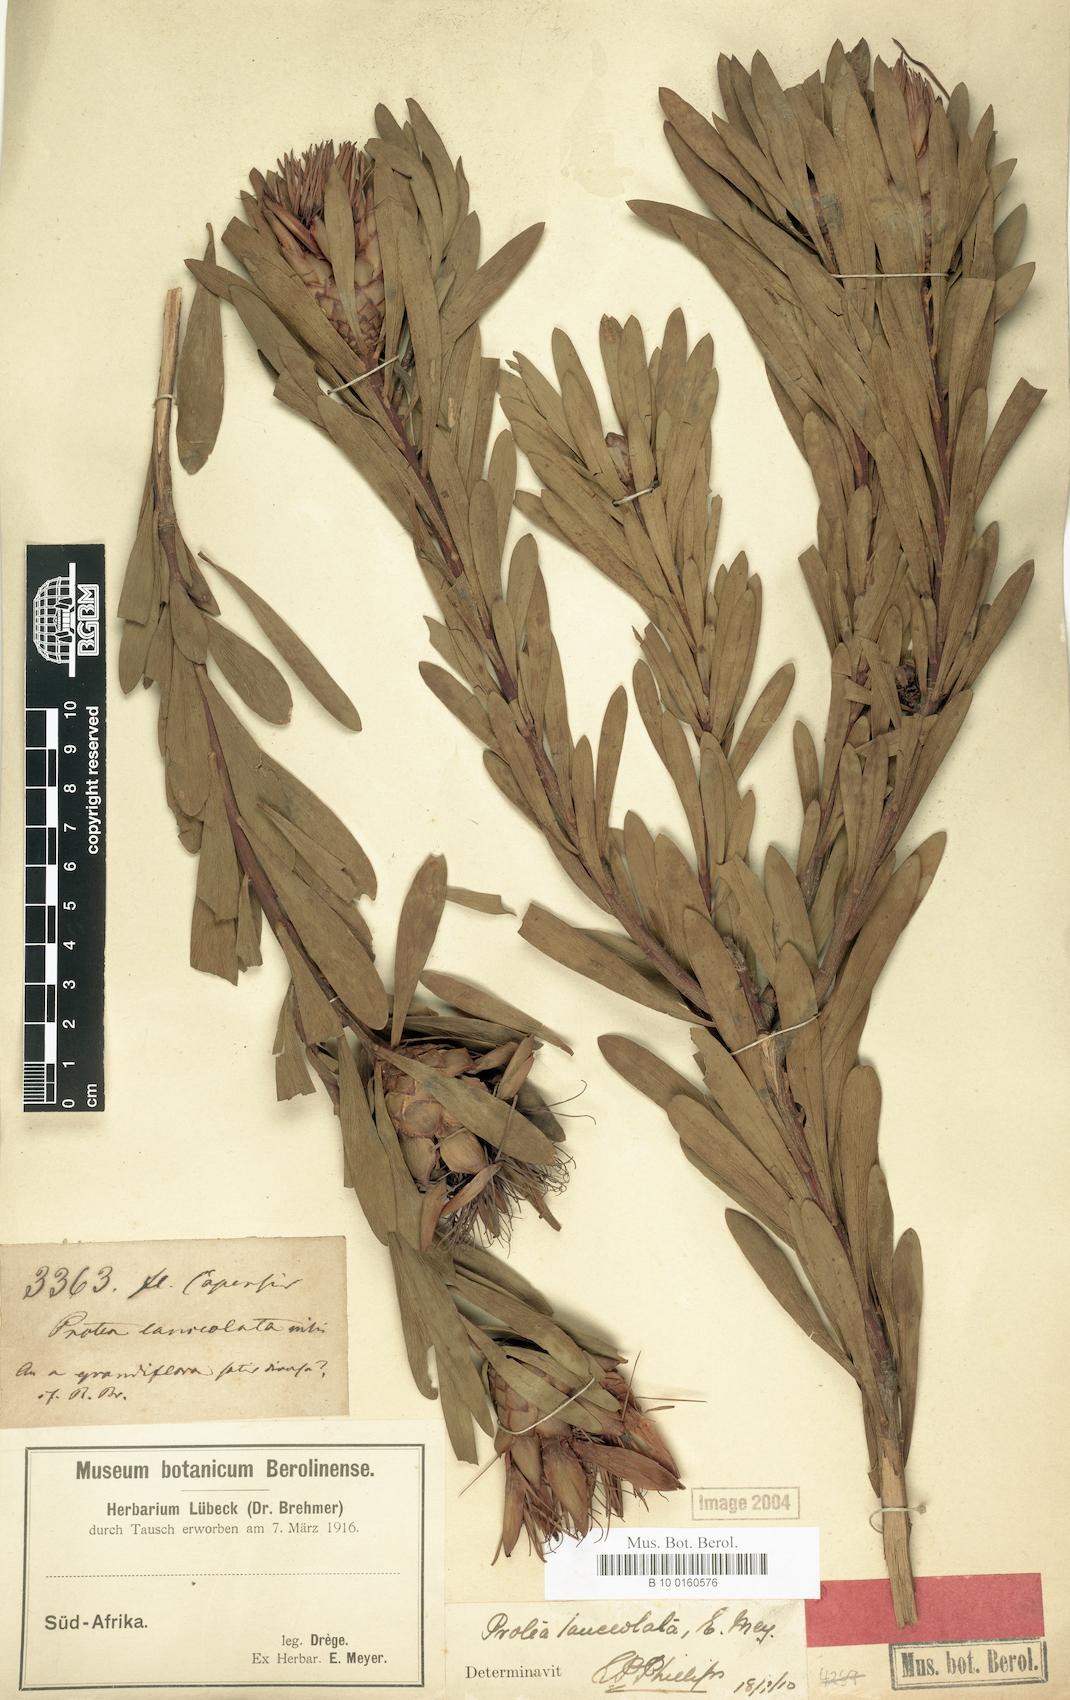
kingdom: Plantae
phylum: Tracheophyta
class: Magnoliopsida
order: Proteales
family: Proteaceae
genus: Protea
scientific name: Protea lanceolata
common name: Lance-leaved protea
